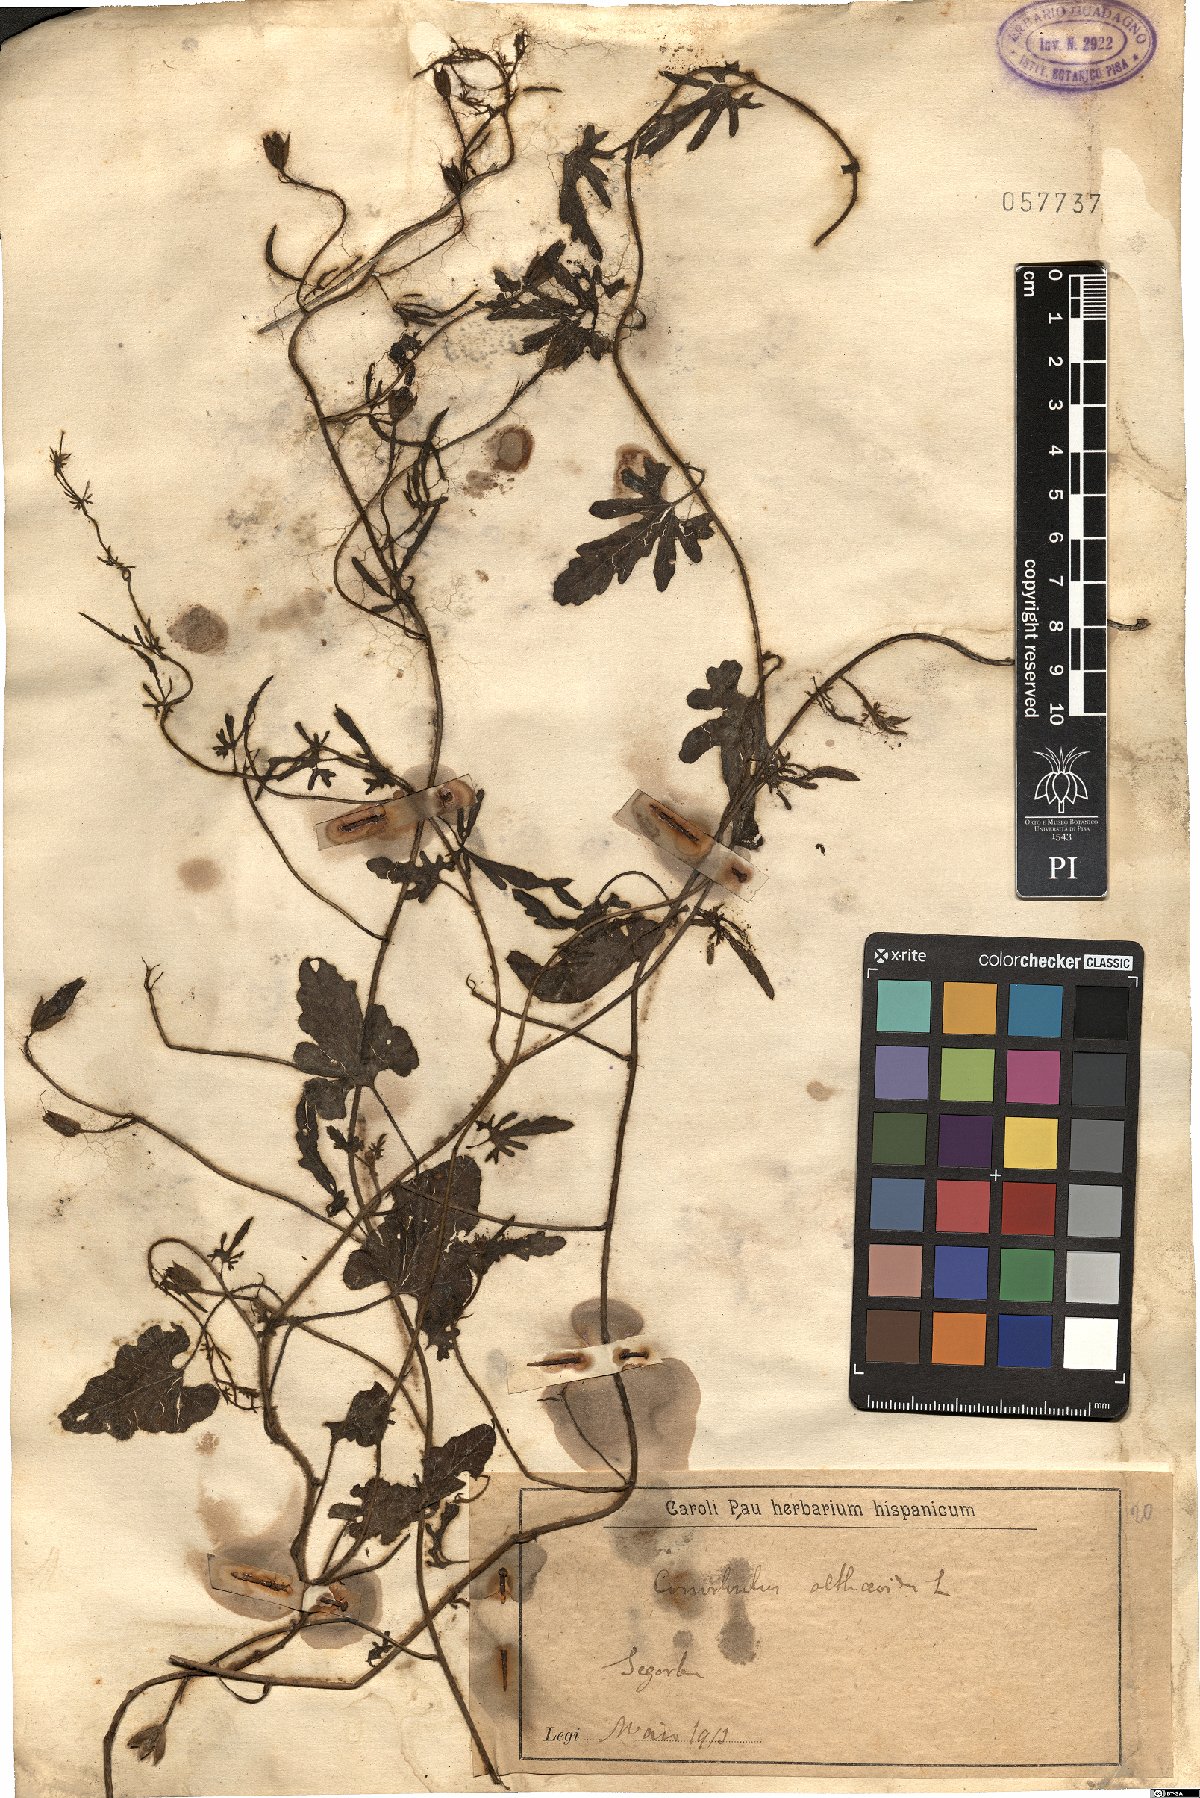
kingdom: Plantae
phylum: Tracheophyta
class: Magnoliopsida
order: Solanales
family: Convolvulaceae
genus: Convolvulus
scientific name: Convolvulus althaeoides
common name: Mallow bindweed
